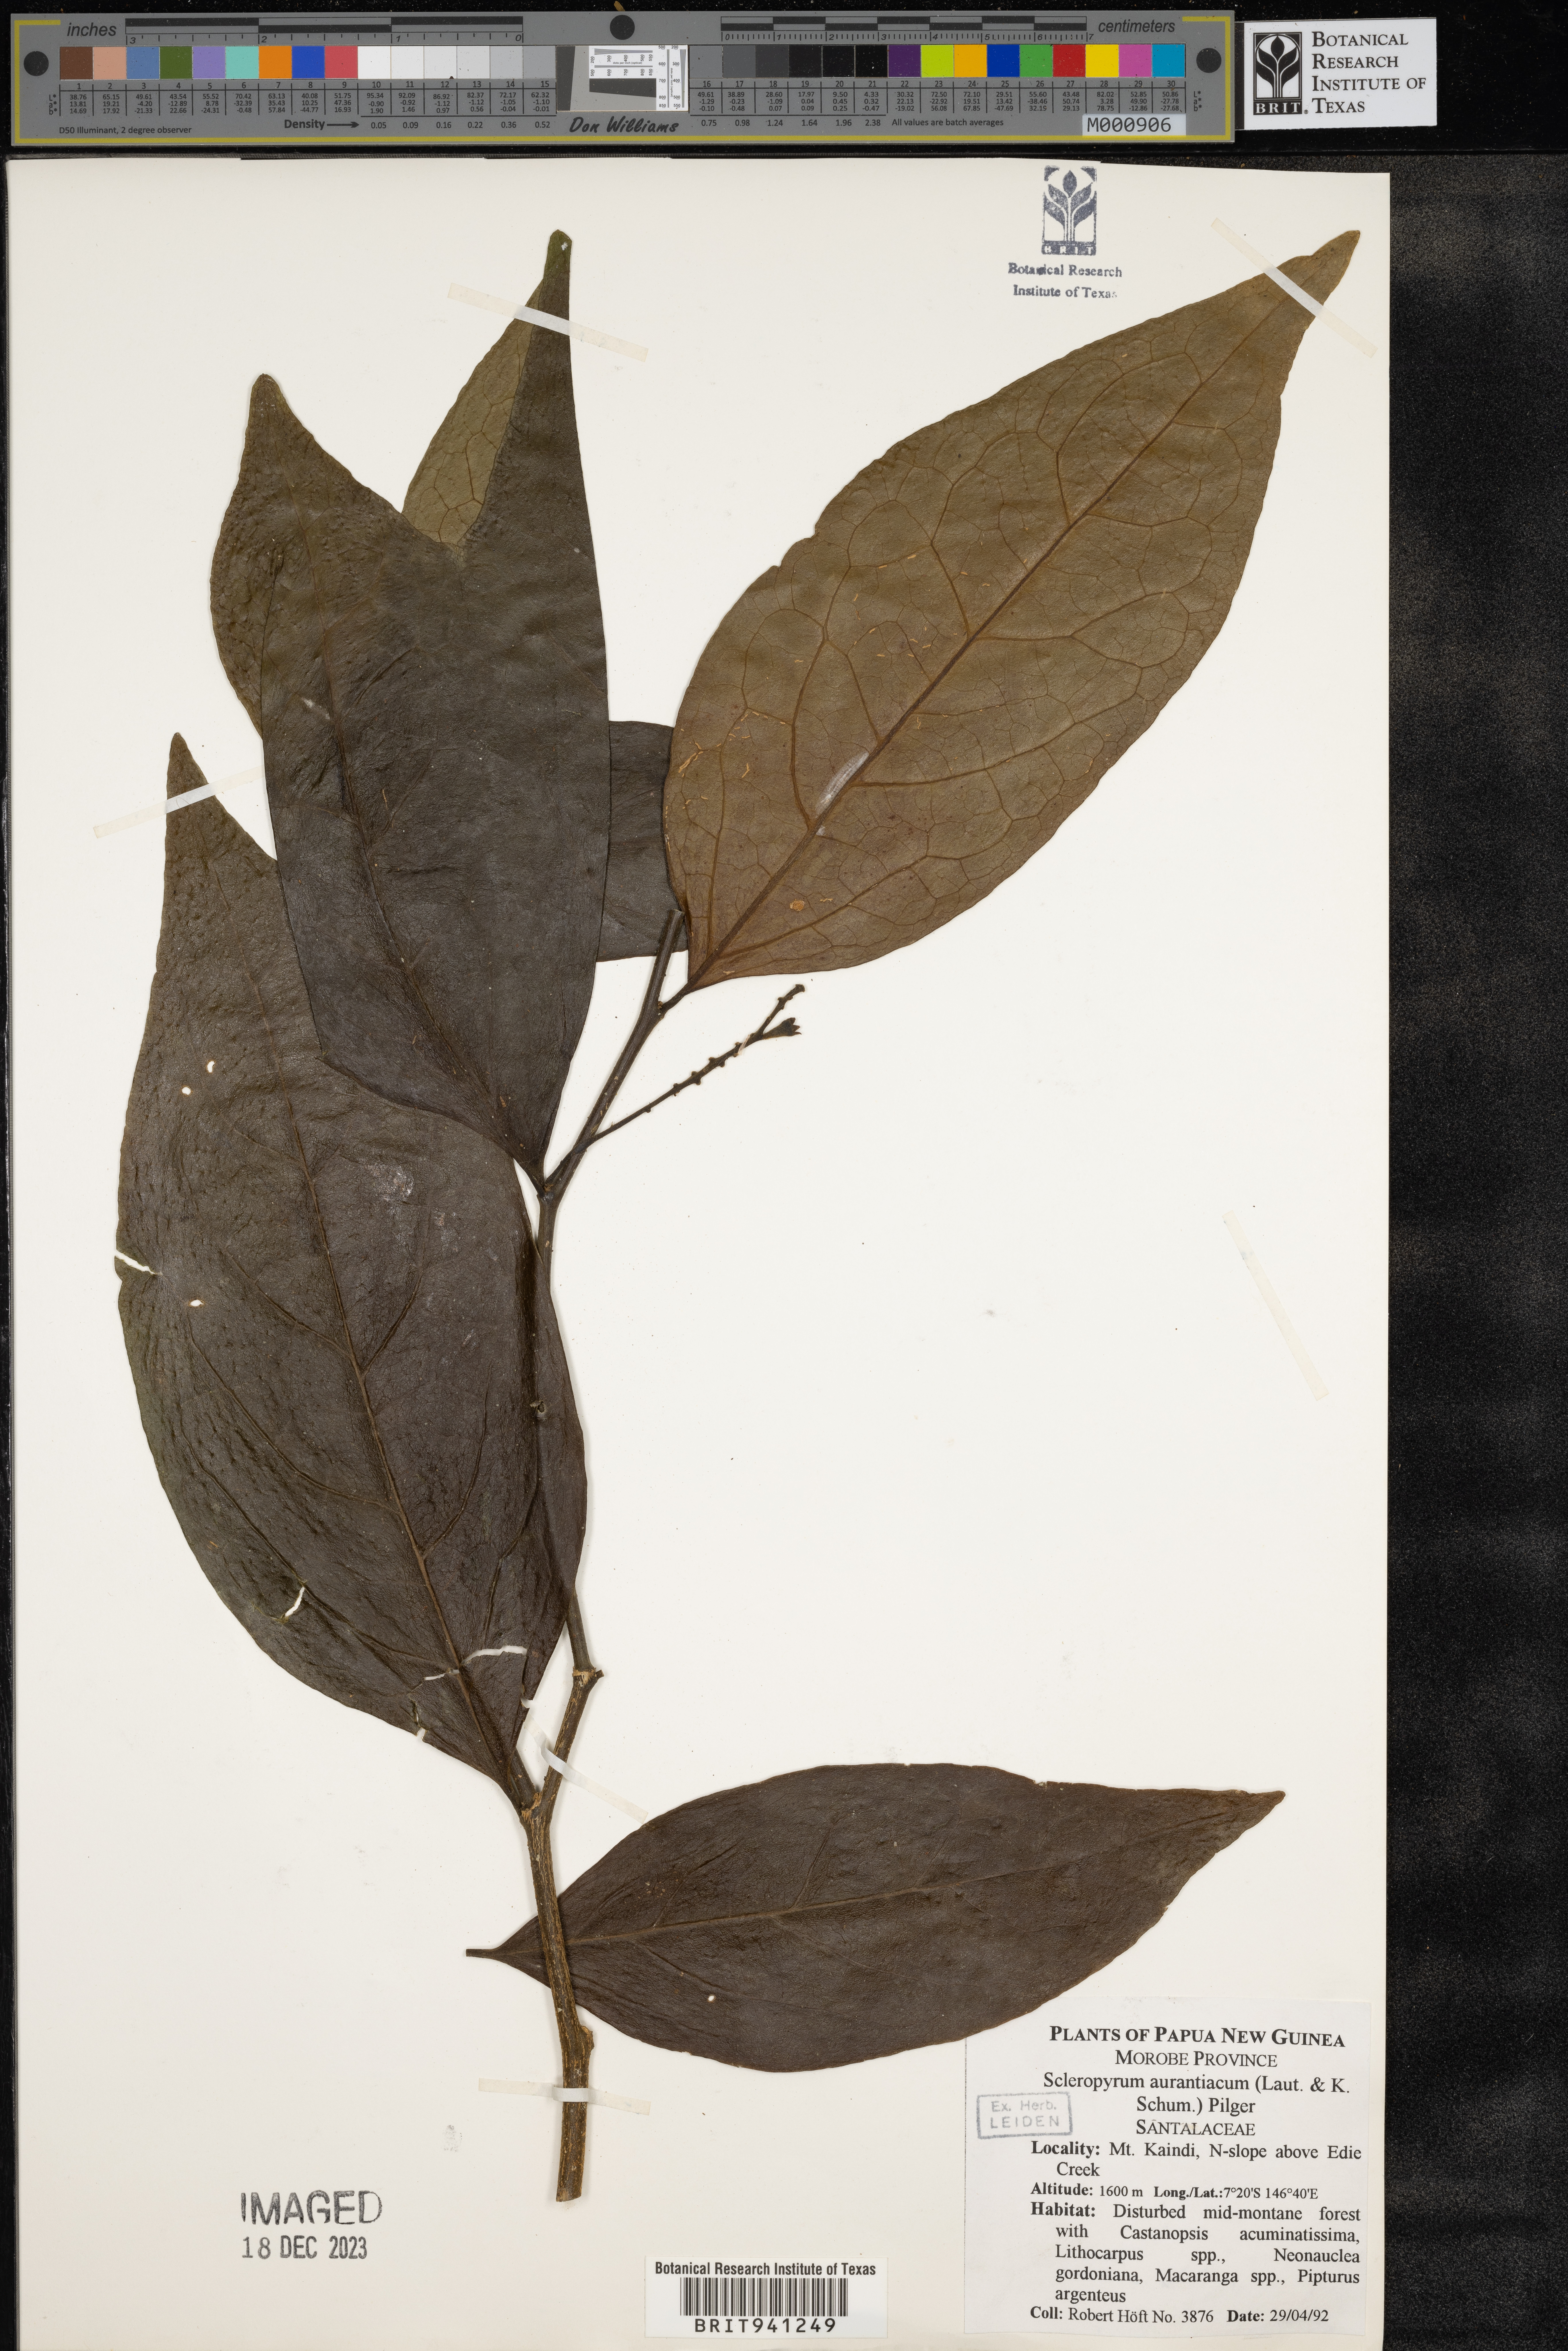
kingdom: Plantae
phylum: Tracheophyta
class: Magnoliopsida
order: Santalales
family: Cervantesiaceae
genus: Scleropyrum
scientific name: Scleropyrum
